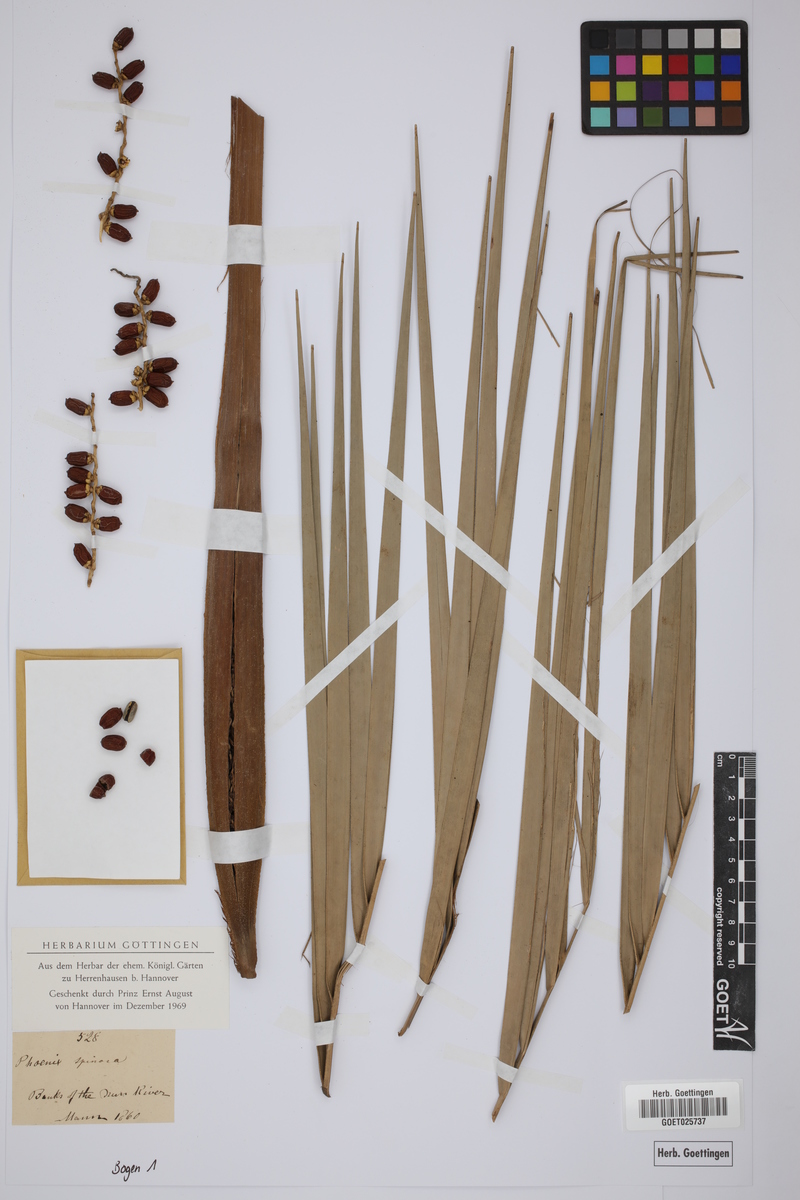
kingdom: Plantae
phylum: Tracheophyta
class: Liliopsida
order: Arecales
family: Arecaceae
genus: Phoenix
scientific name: Phoenix reclinata
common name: Senegal date palm
